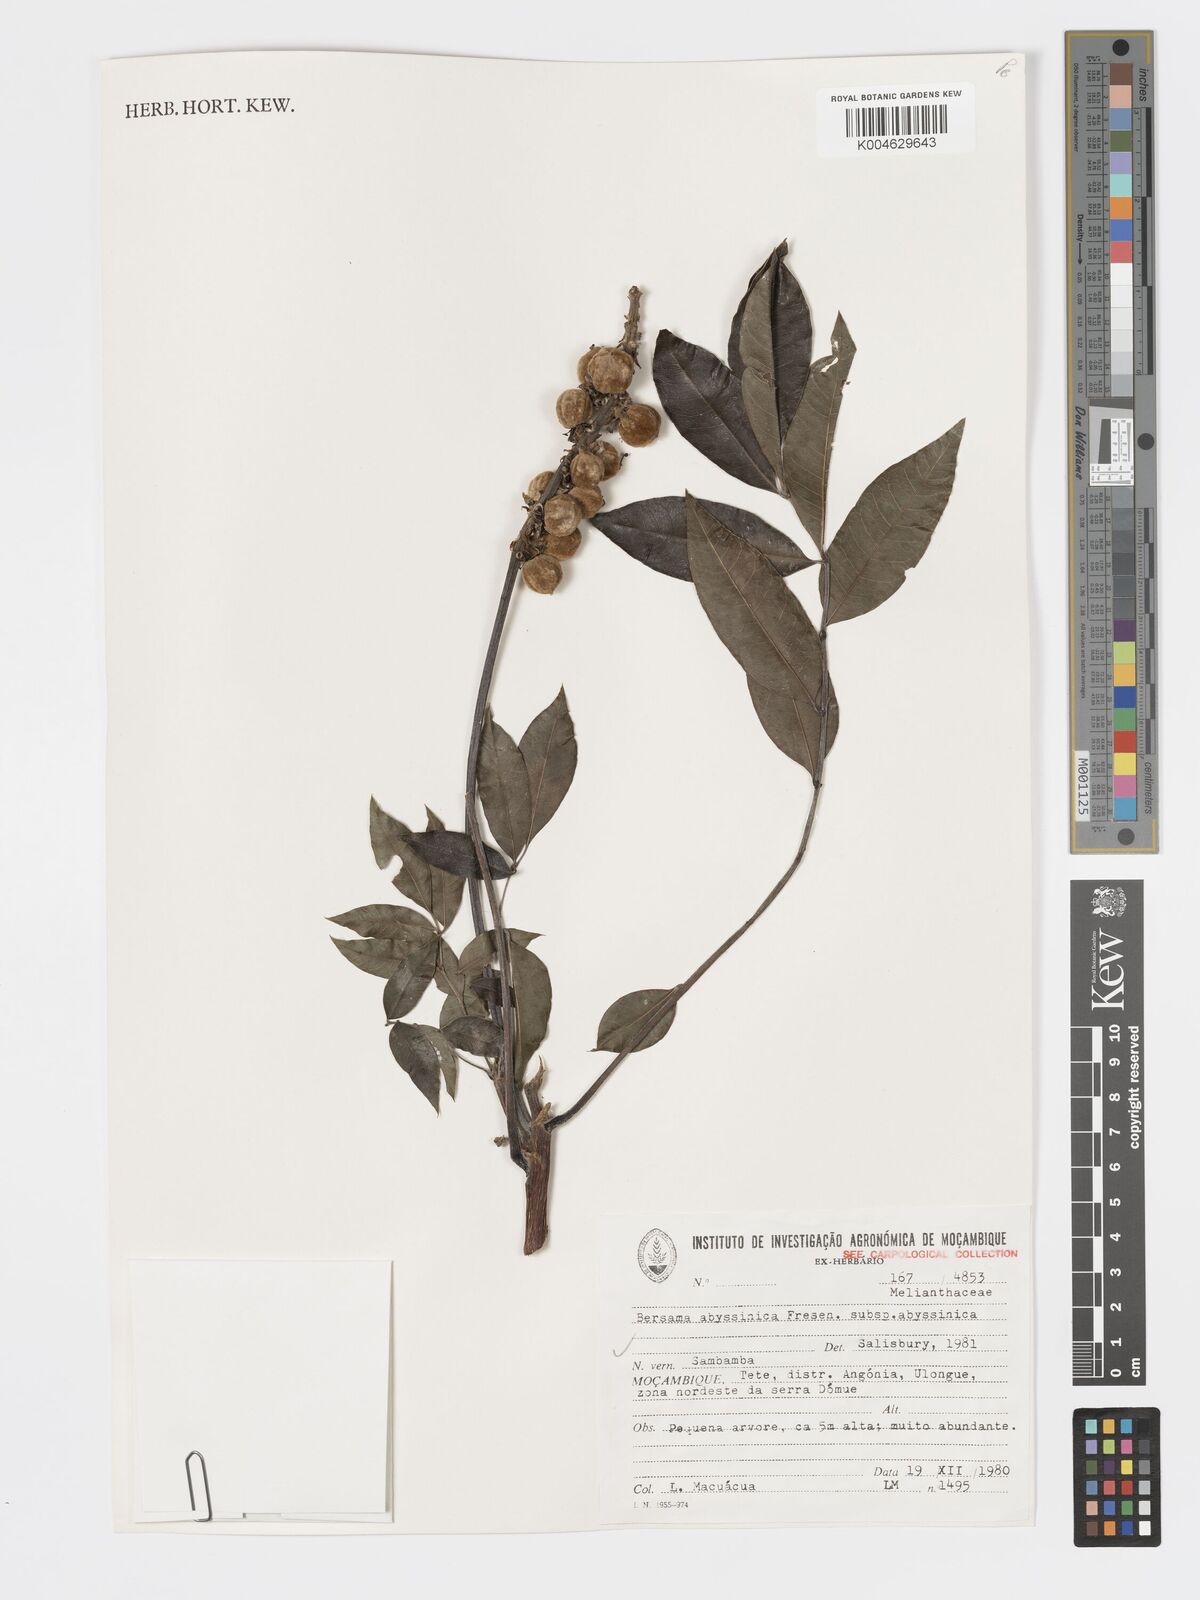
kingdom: Plantae
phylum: Tracheophyta
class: Magnoliopsida
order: Geraniales
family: Melianthaceae
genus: Bersama
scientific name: Bersama abyssinica
